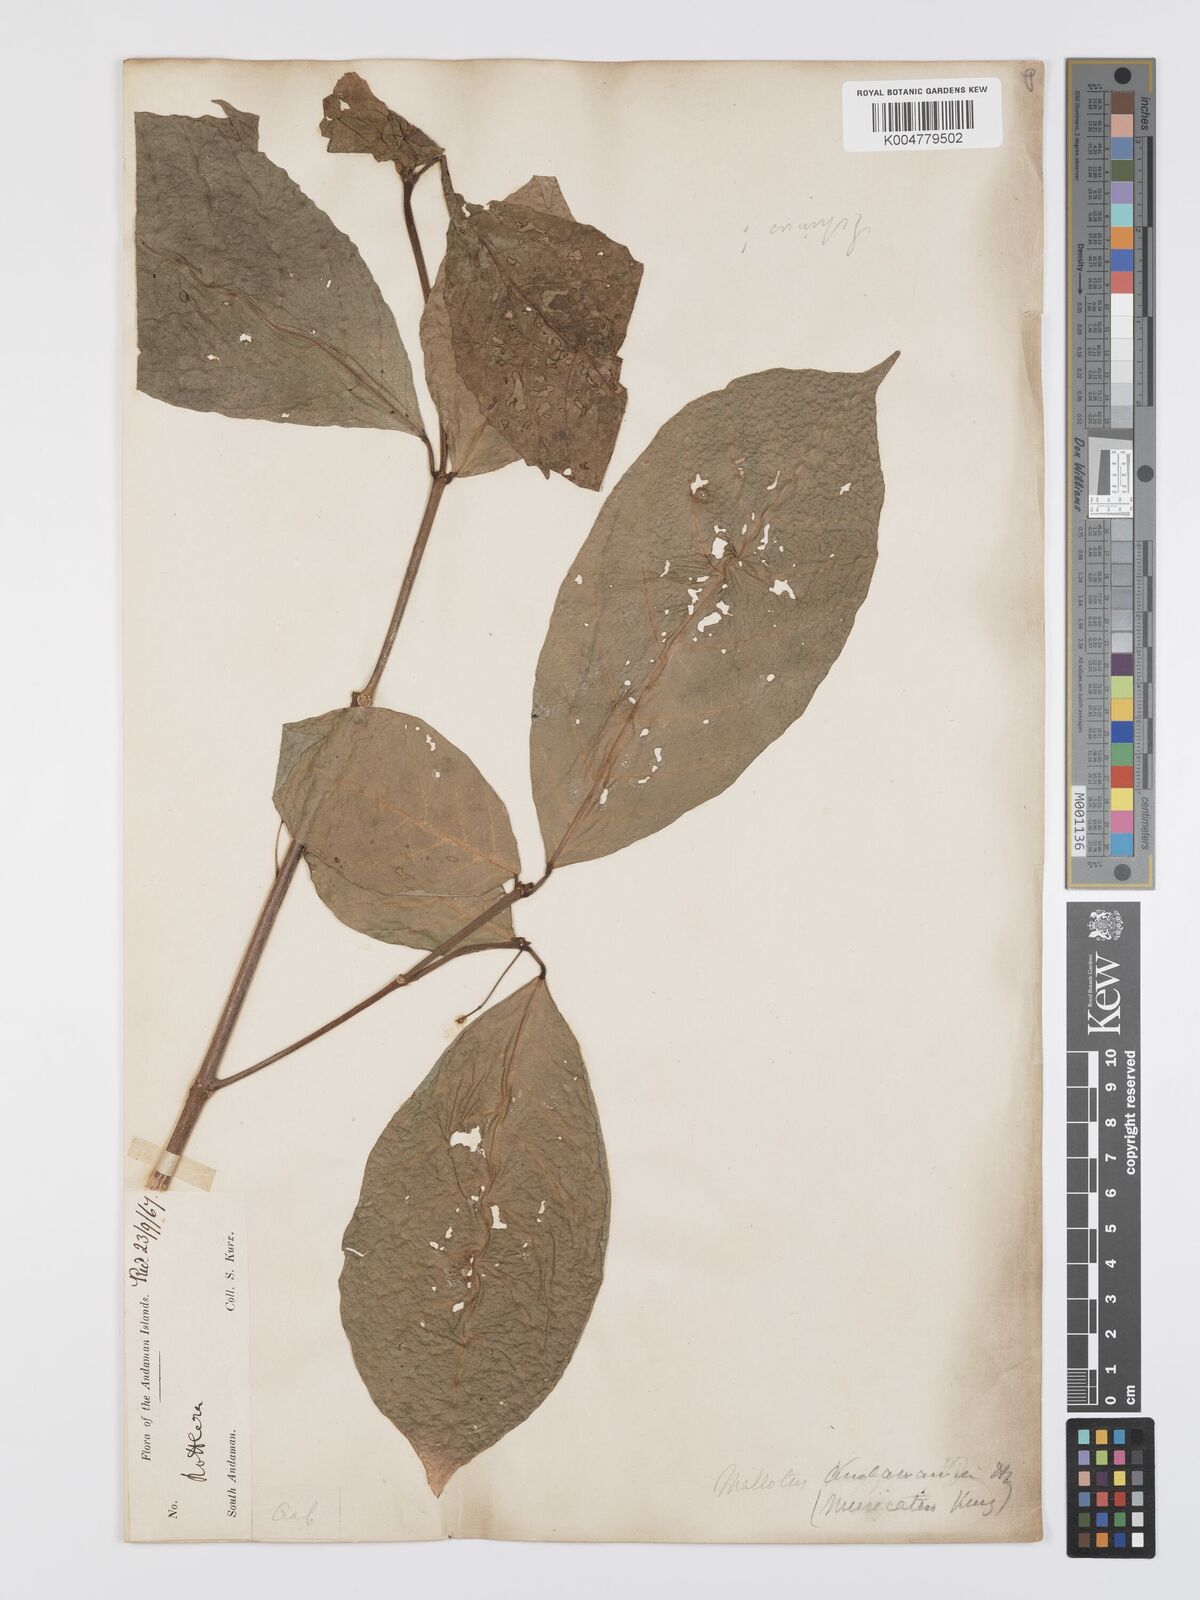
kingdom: Plantae
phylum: Tracheophyta
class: Magnoliopsida
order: Malpighiales
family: Euphorbiaceae
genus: Mallotus
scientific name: Mallotus resinosus
